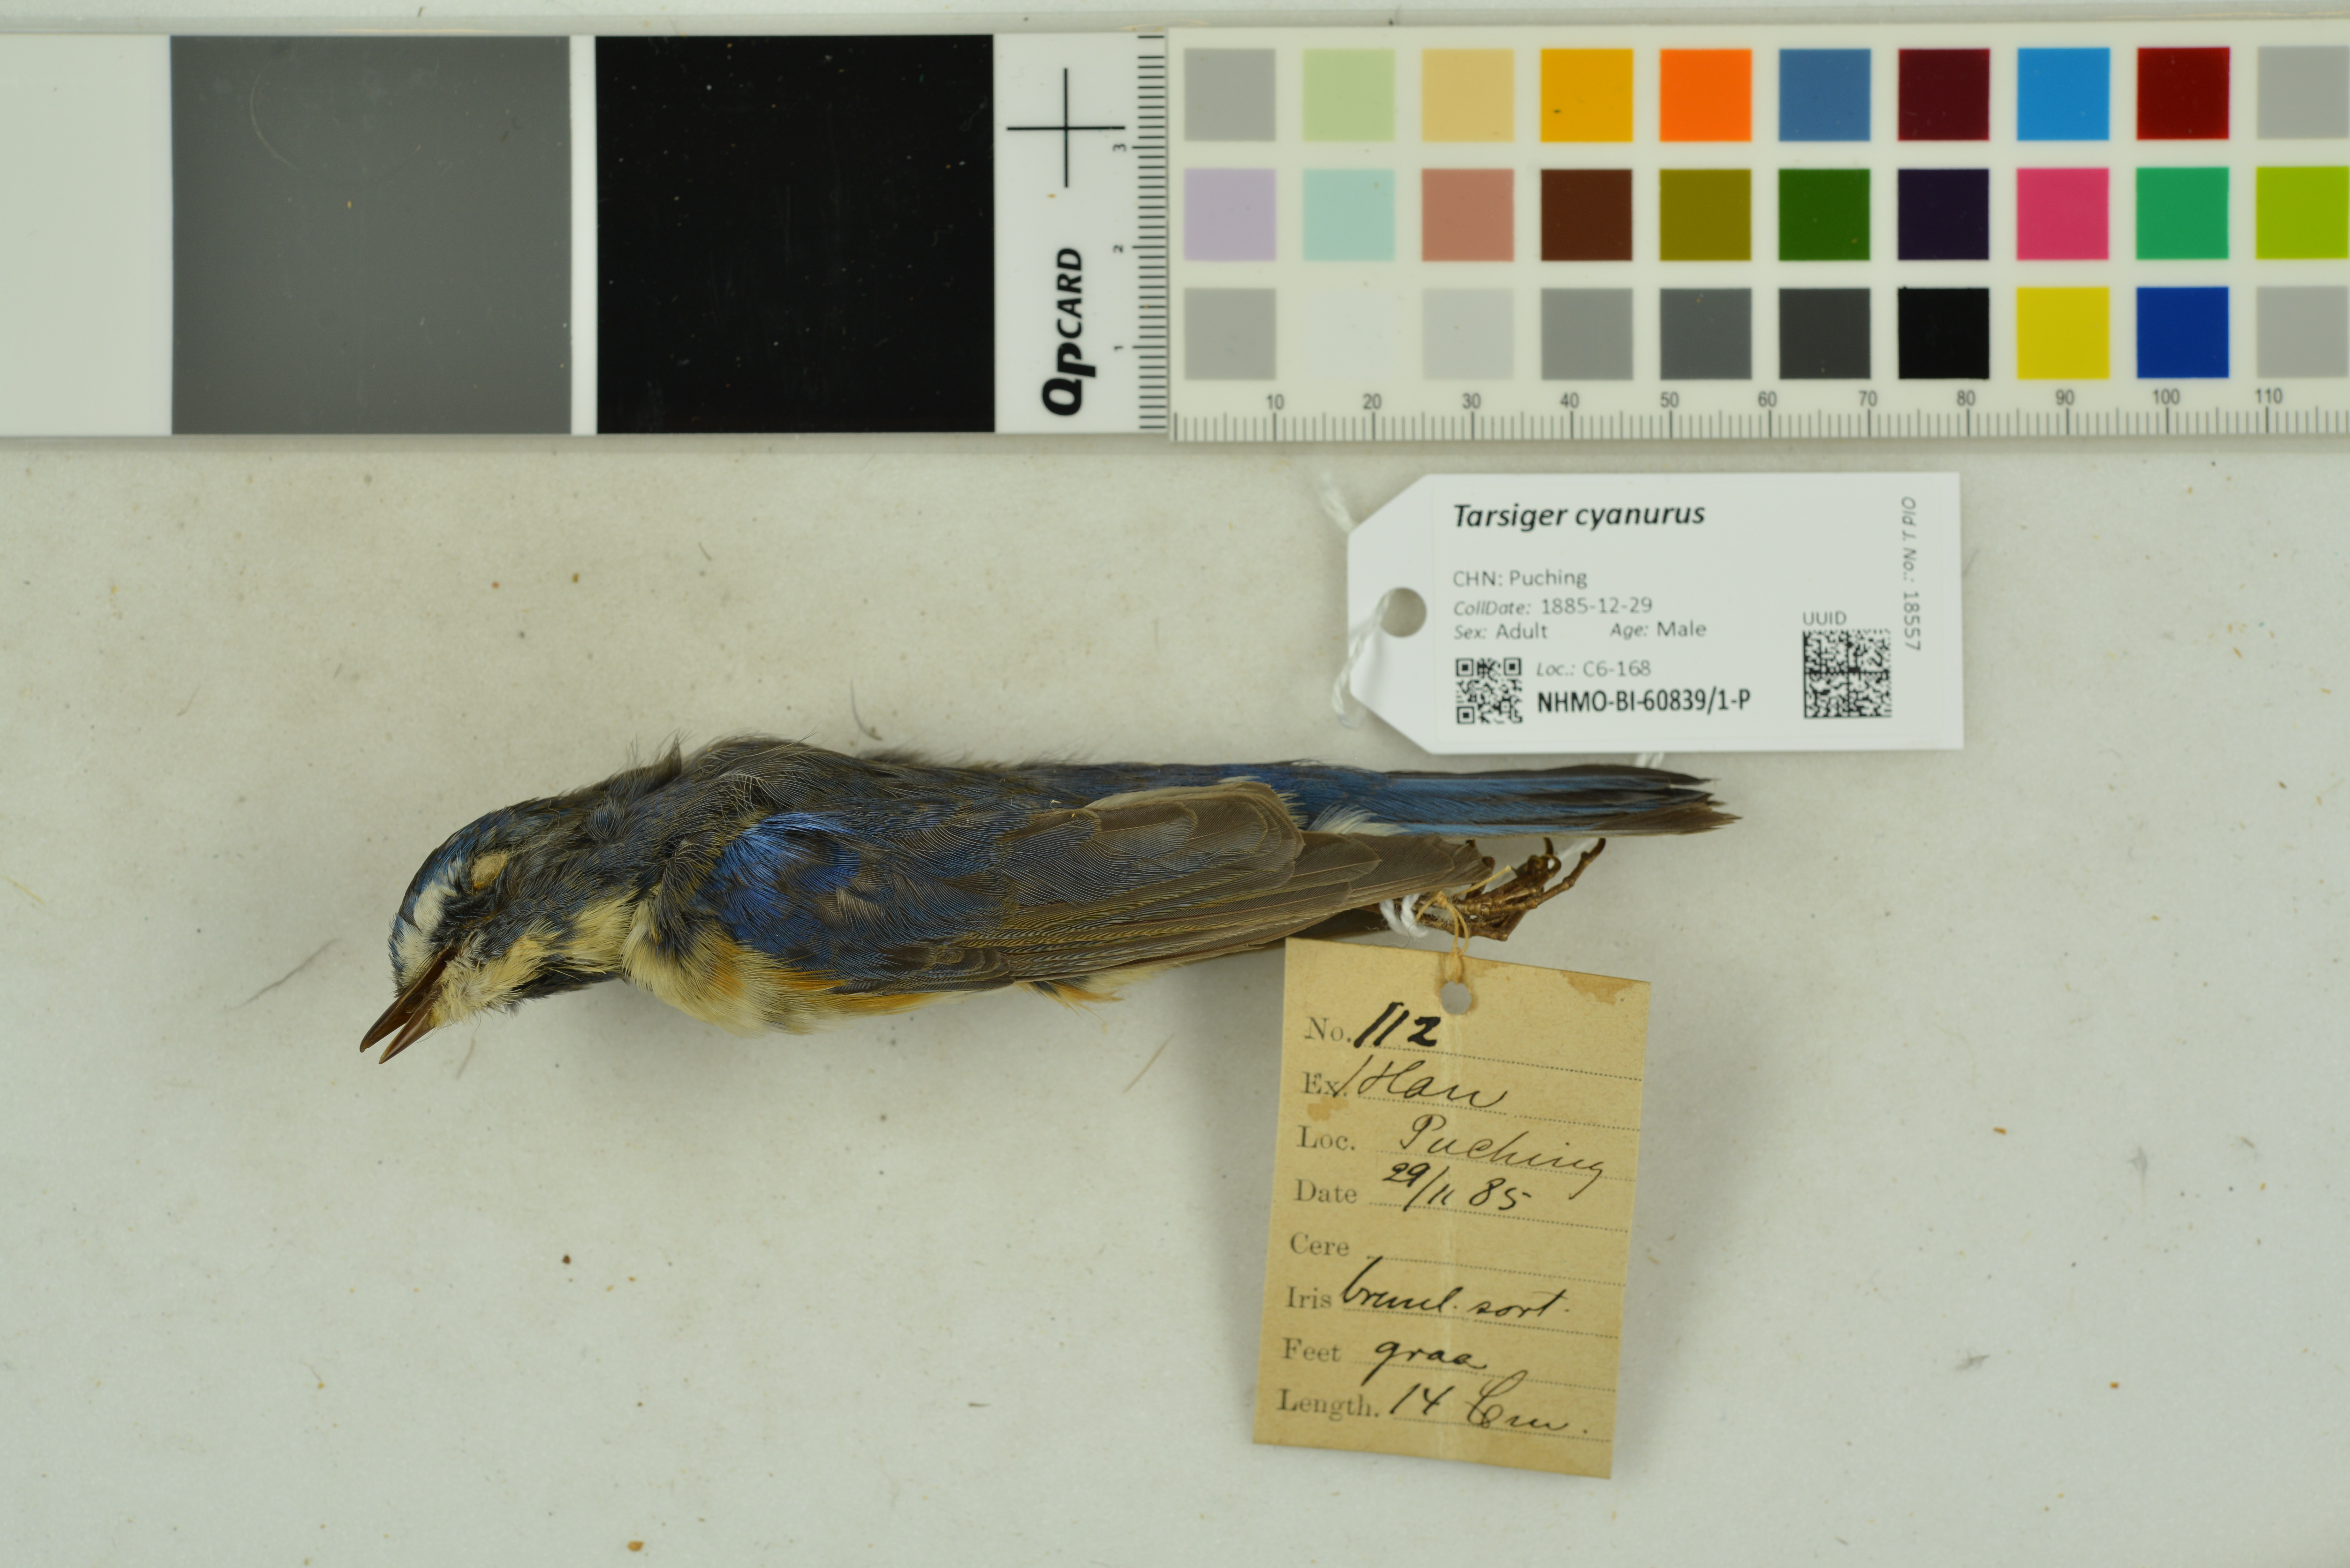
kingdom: Animalia
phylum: Chordata
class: Aves
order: Passeriformes
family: Muscicapidae
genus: Tarsiger
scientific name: Tarsiger cyanurus
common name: Red-flanked bluetail
